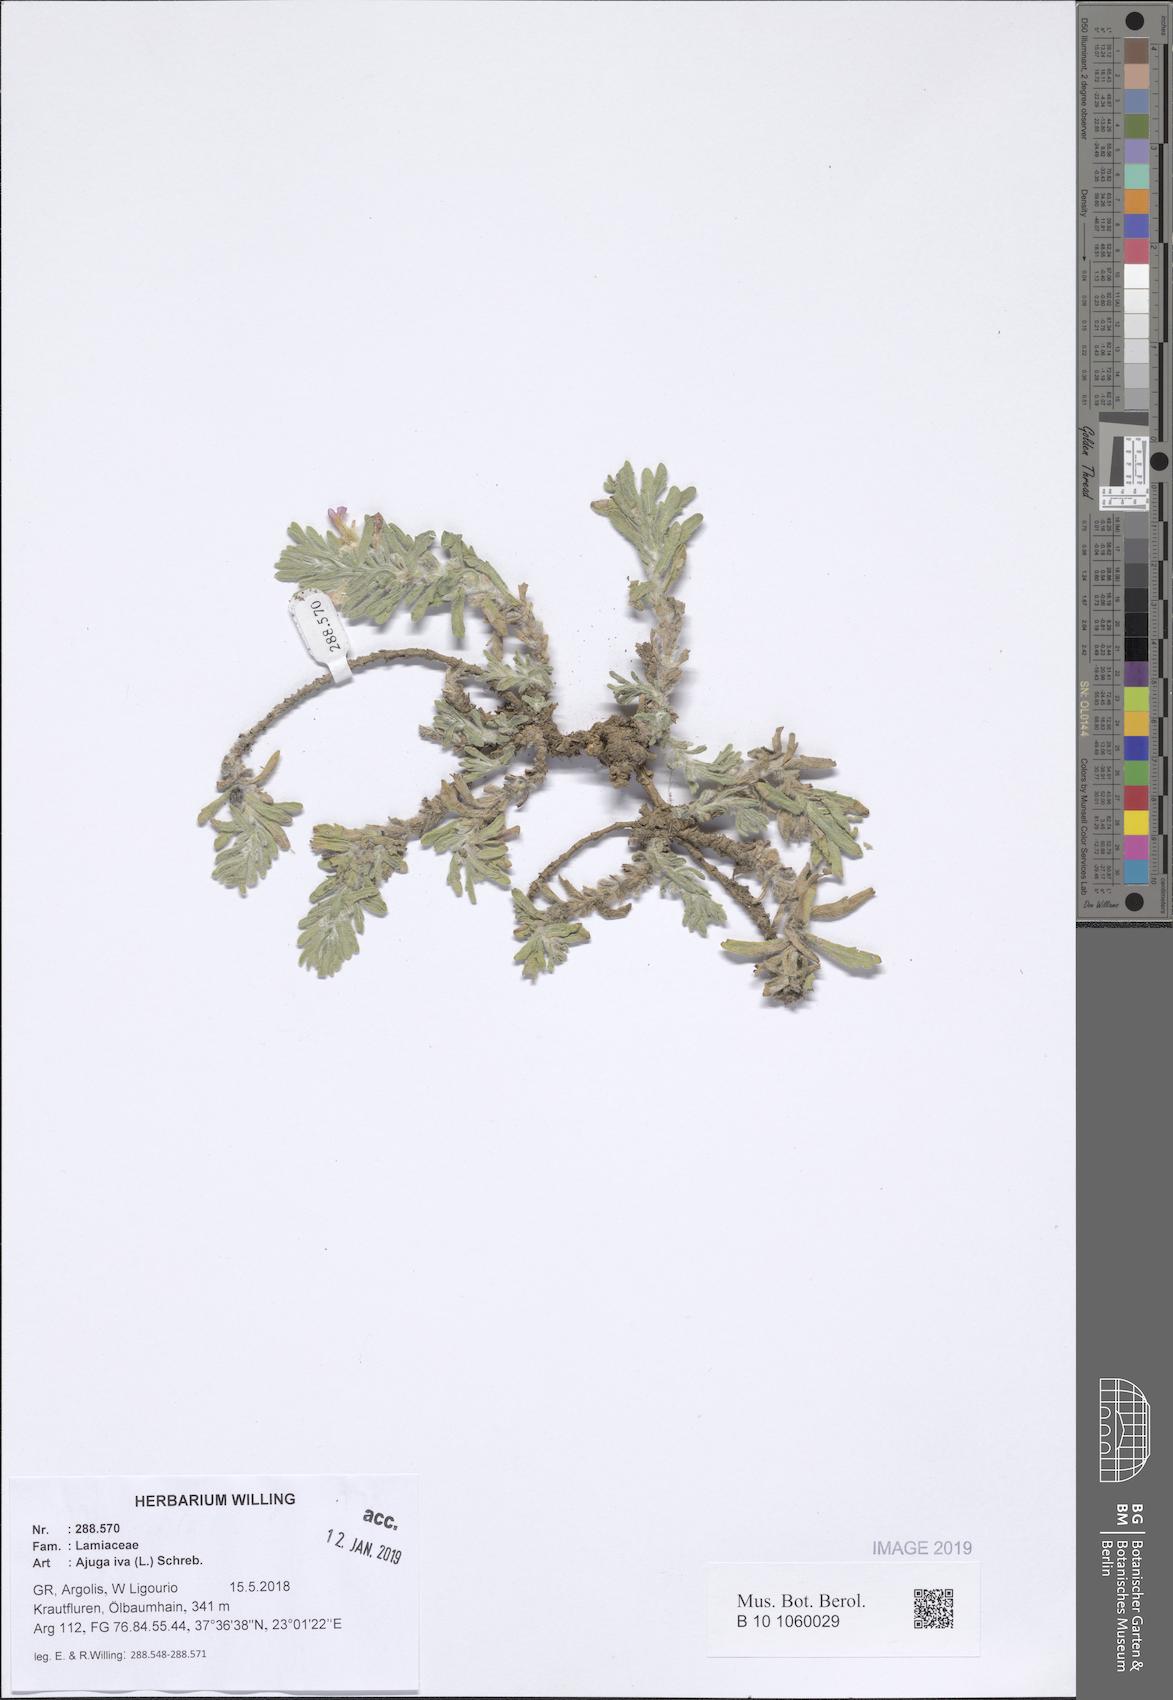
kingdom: Plantae
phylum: Tracheophyta
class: Magnoliopsida
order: Lamiales
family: Lamiaceae
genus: Ajuga
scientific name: Ajuga iva
